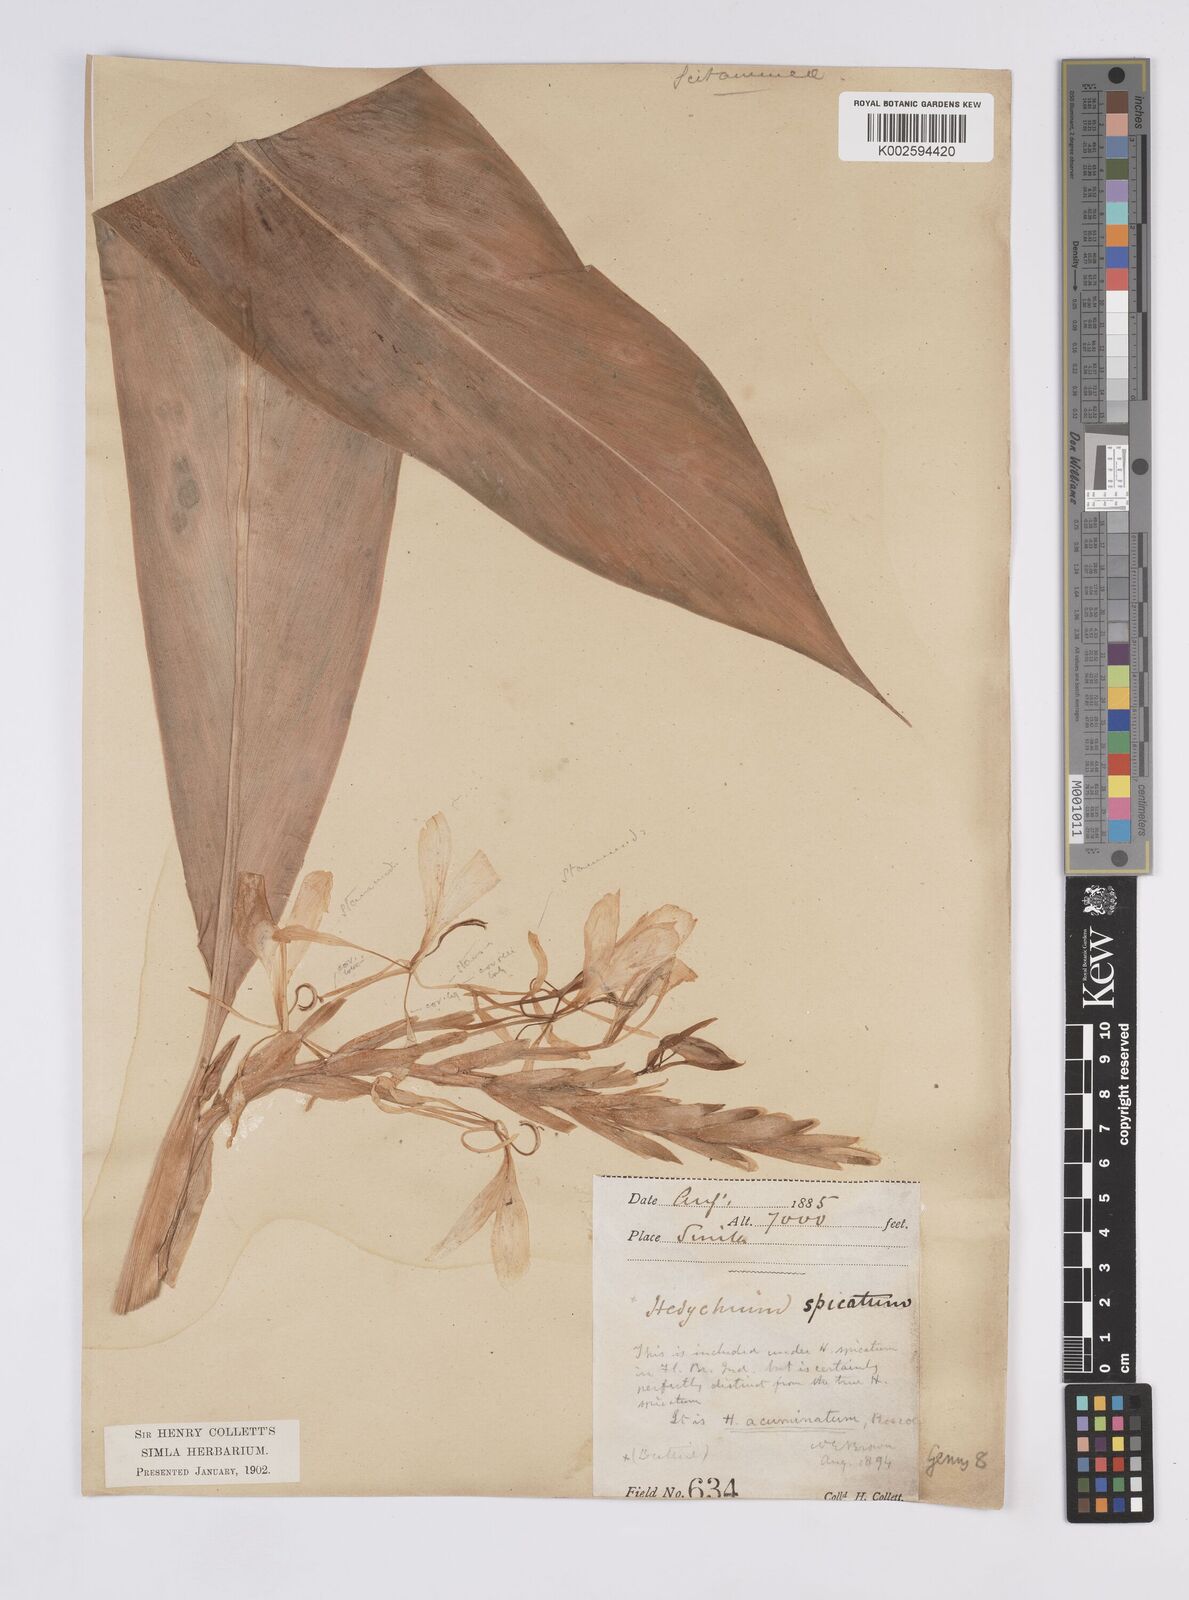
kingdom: Plantae
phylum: Tracheophyta
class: Liliopsida
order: Zingiberales
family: Zingiberaceae
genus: Hedychium
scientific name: Hedychium spicatum
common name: Spiked ginger-lily
